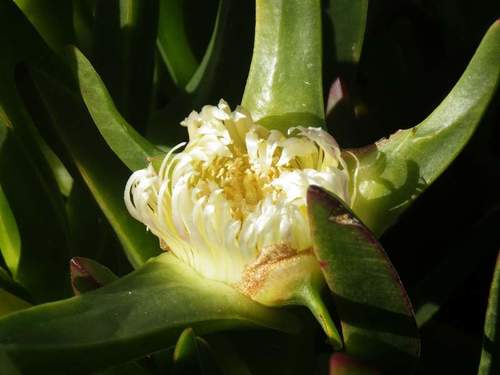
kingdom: Plantae
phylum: Tracheophyta
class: Magnoliopsida
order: Caryophyllales
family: Aizoaceae
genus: Carpobrotus
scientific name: Carpobrotus edulis
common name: Hottentot-fig
